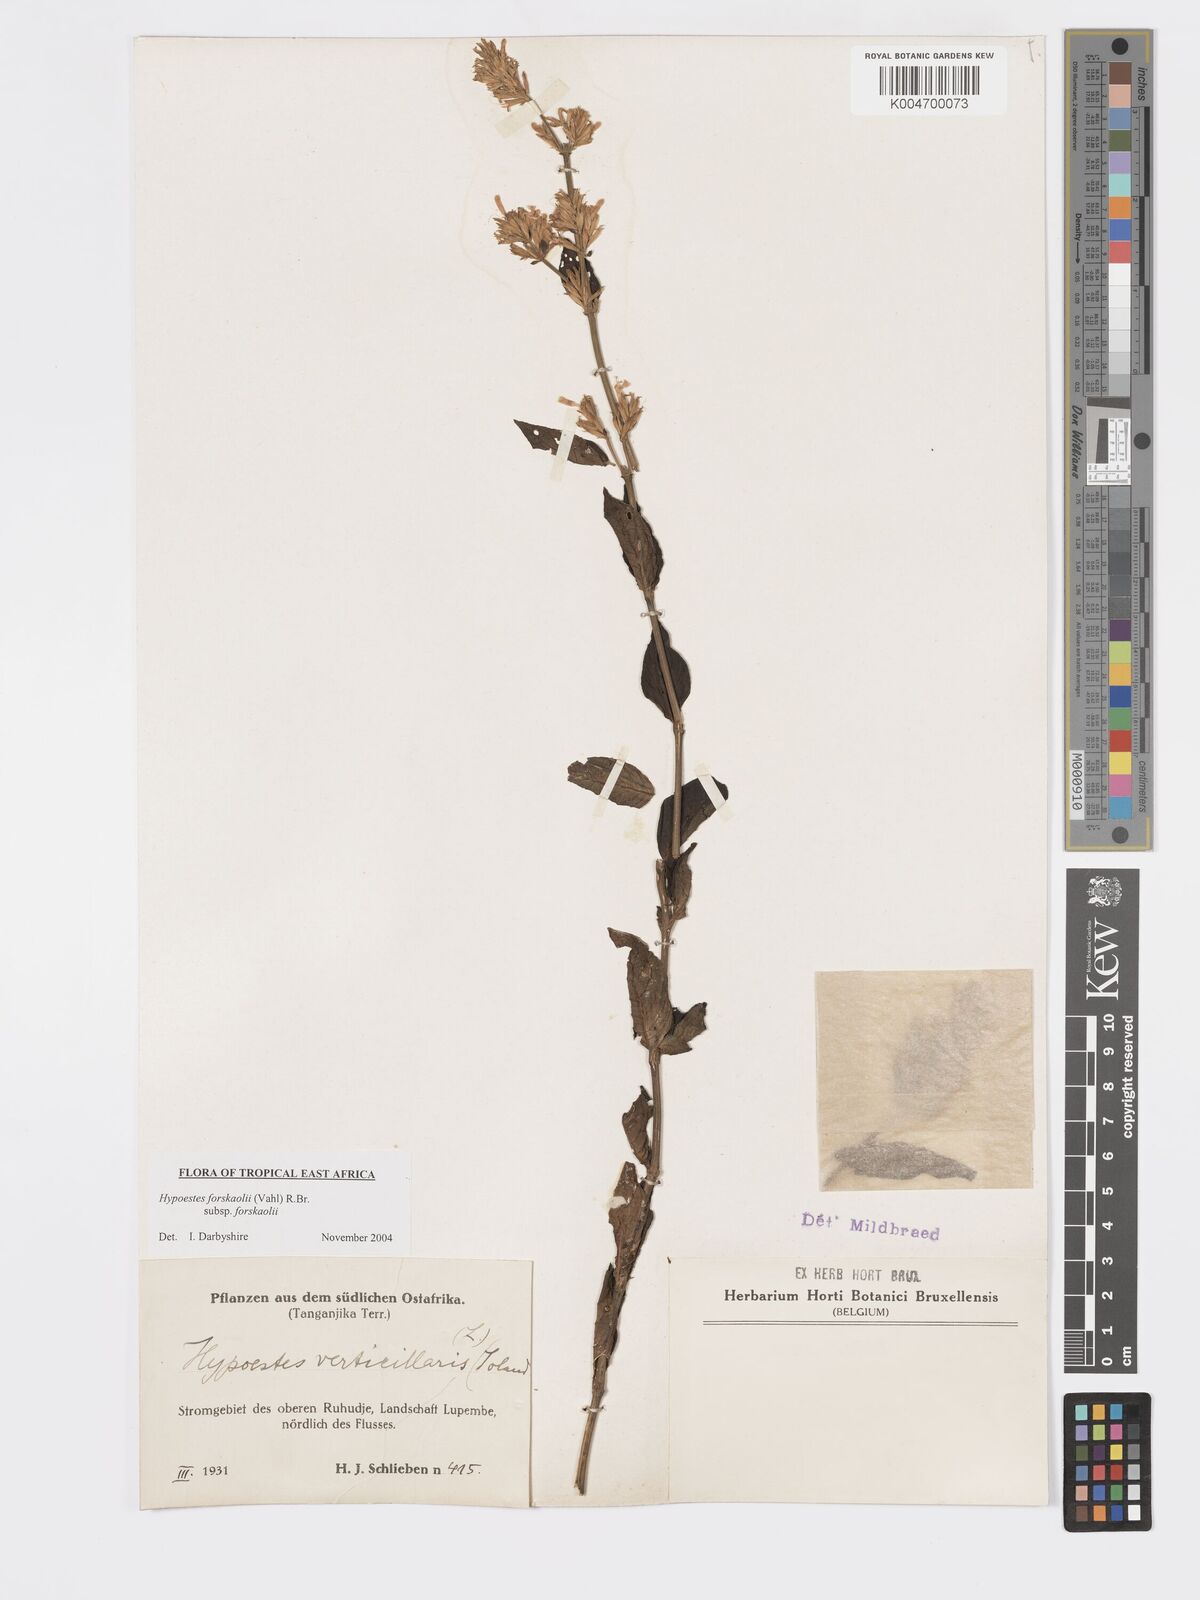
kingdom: Plantae
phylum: Tracheophyta
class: Magnoliopsida
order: Lamiales
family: Acanthaceae
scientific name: Acanthaceae
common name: Acanthaceae
